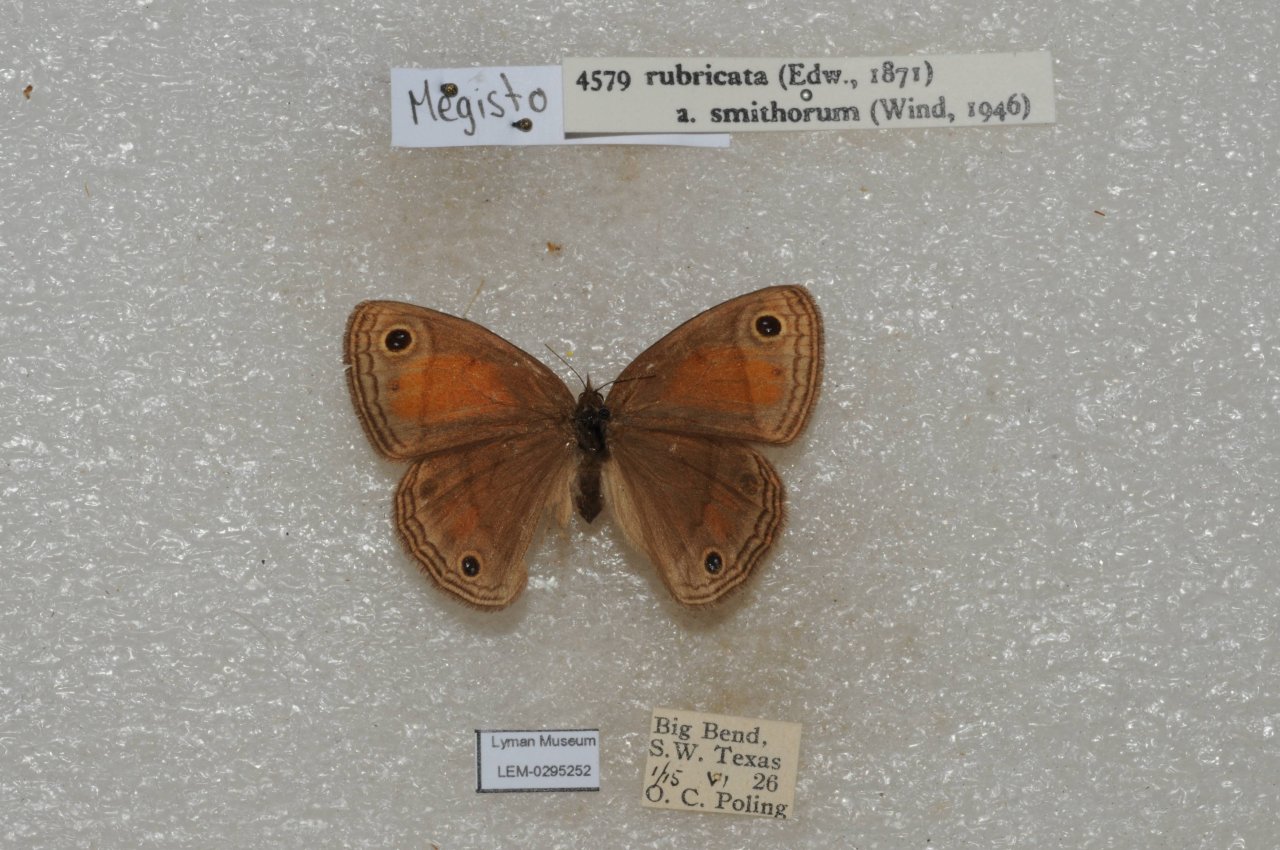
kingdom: Animalia
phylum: Arthropoda
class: Insecta
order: Lepidoptera
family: Nymphalidae
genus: Euptychia
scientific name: Euptychia rubricata
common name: Red Satyr
